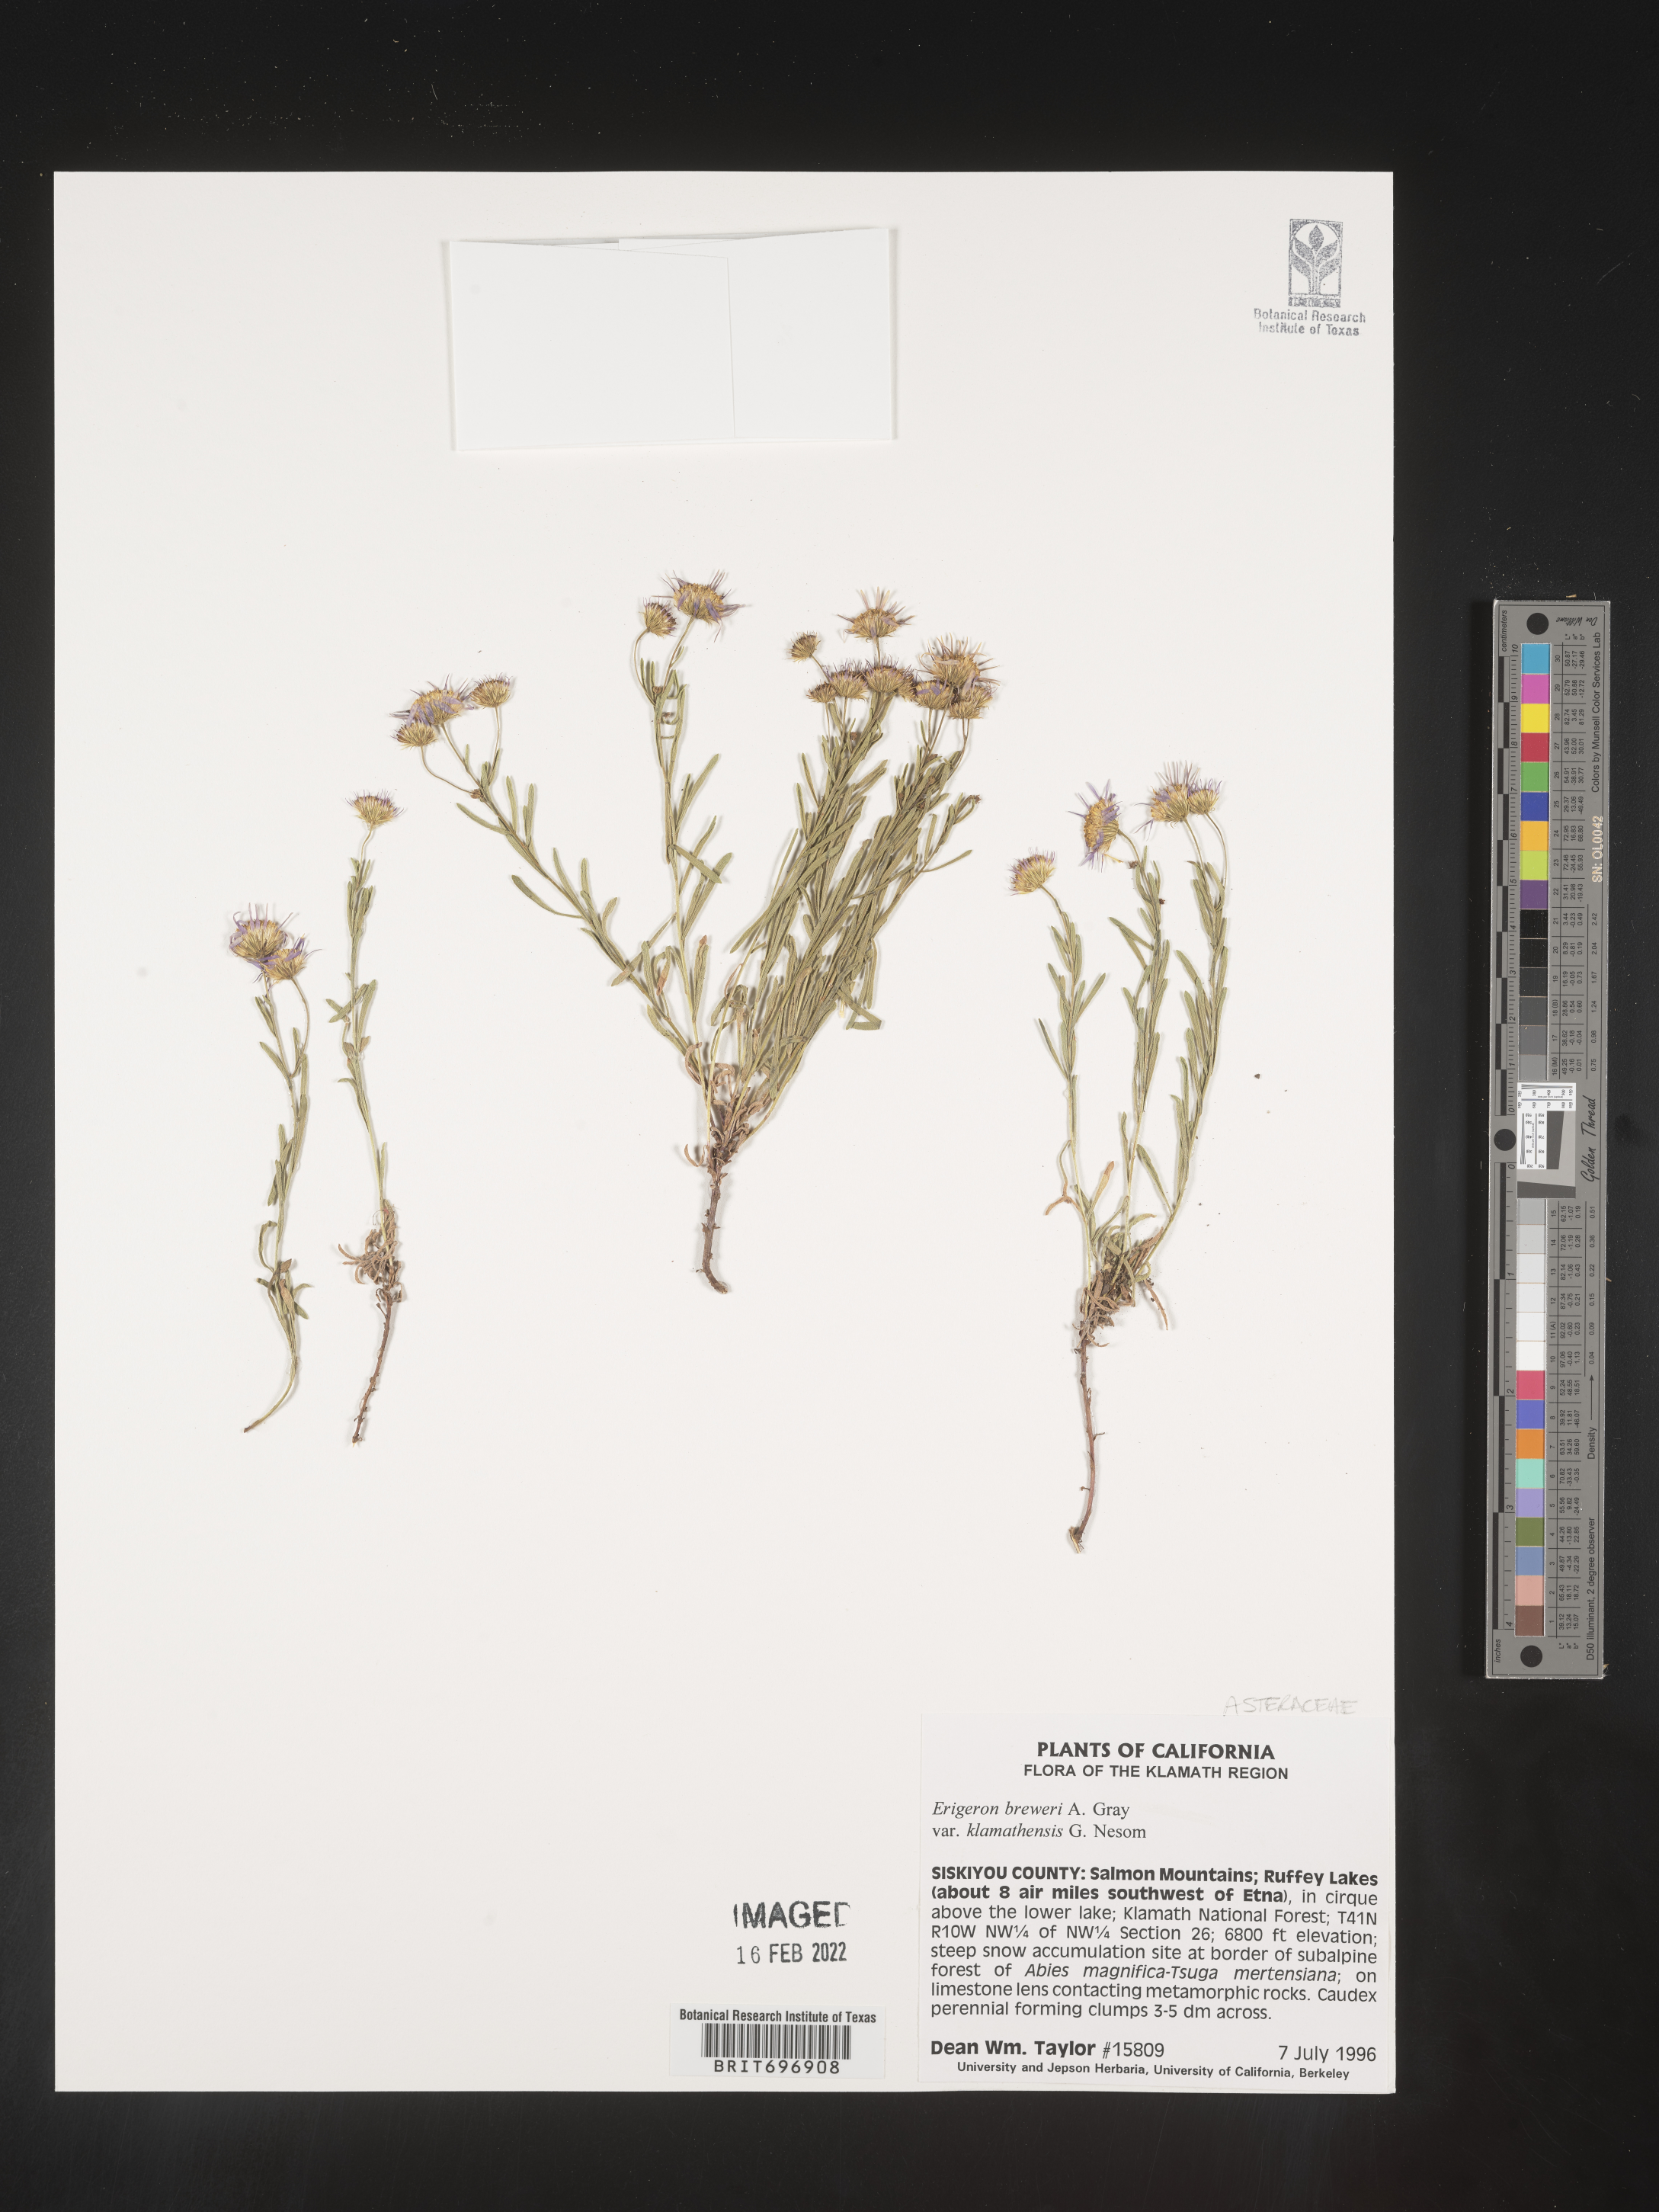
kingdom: Plantae
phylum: Tracheophyta
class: Magnoliopsida
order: Asterales
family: Asteraceae
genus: Erigeron
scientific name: Erigeron breweri
